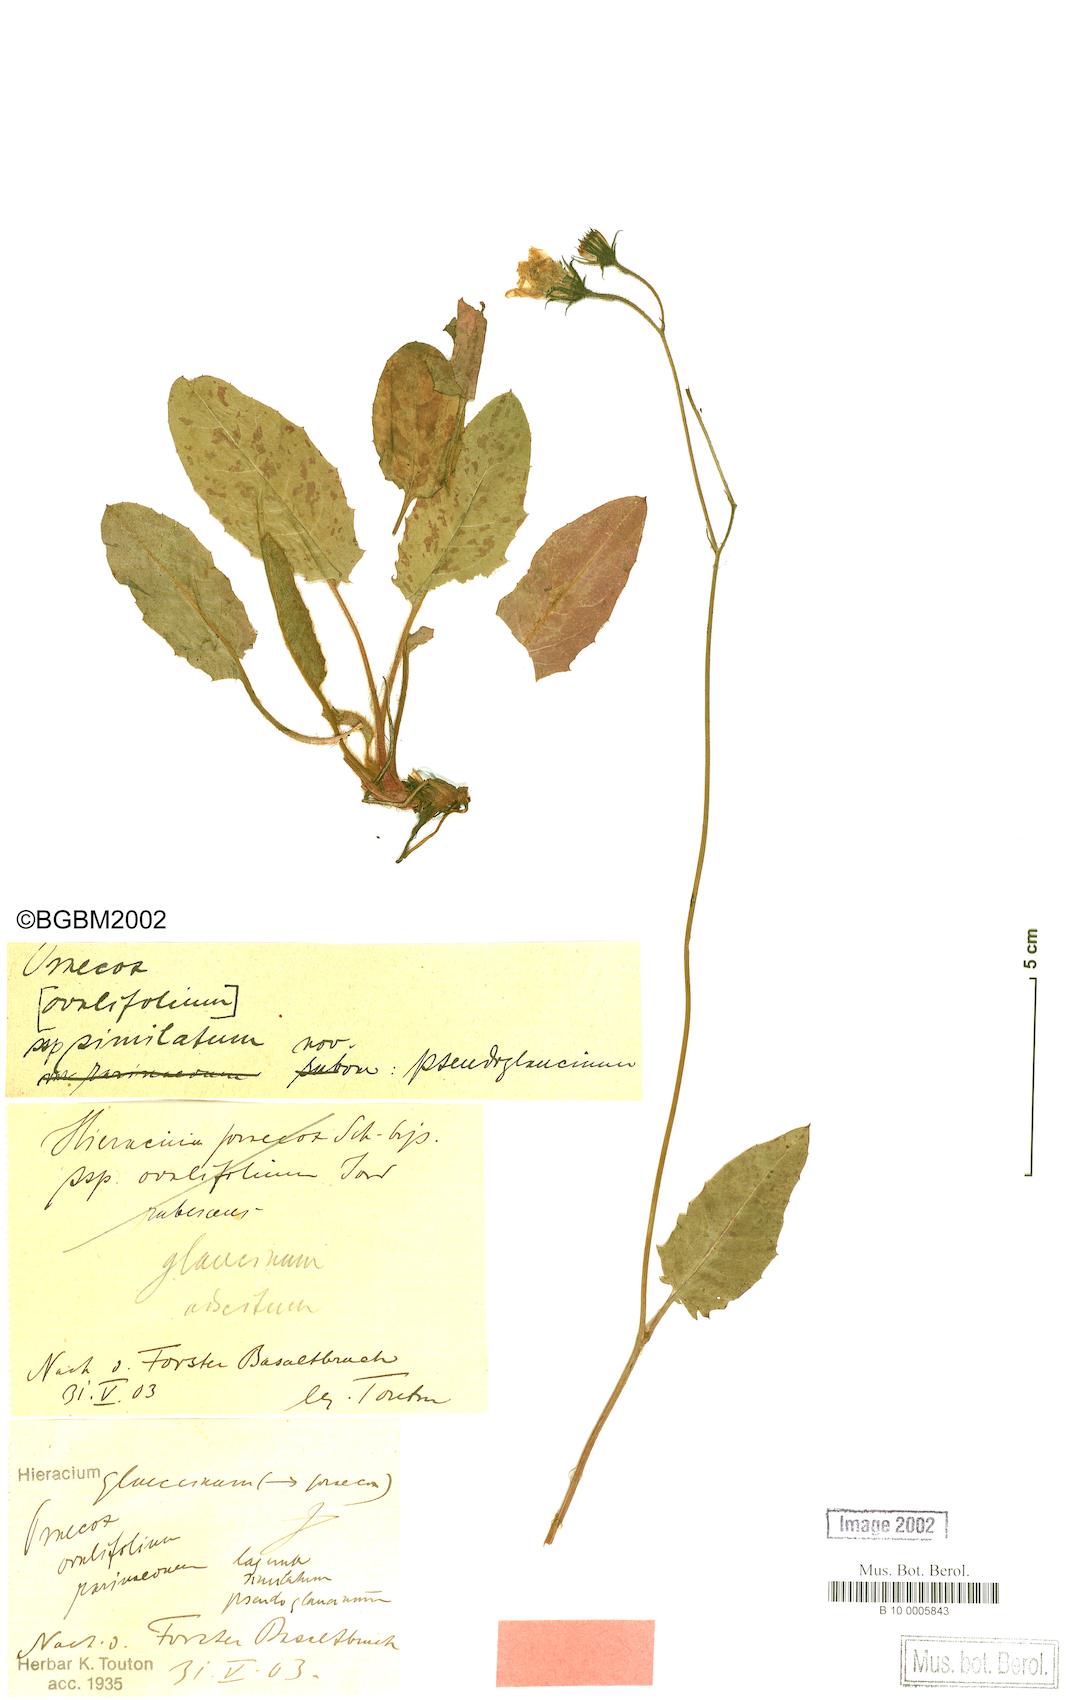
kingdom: Plantae
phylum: Tracheophyta
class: Magnoliopsida
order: Asterales
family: Asteraceae
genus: Hieracium
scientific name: Hieracium praecox
